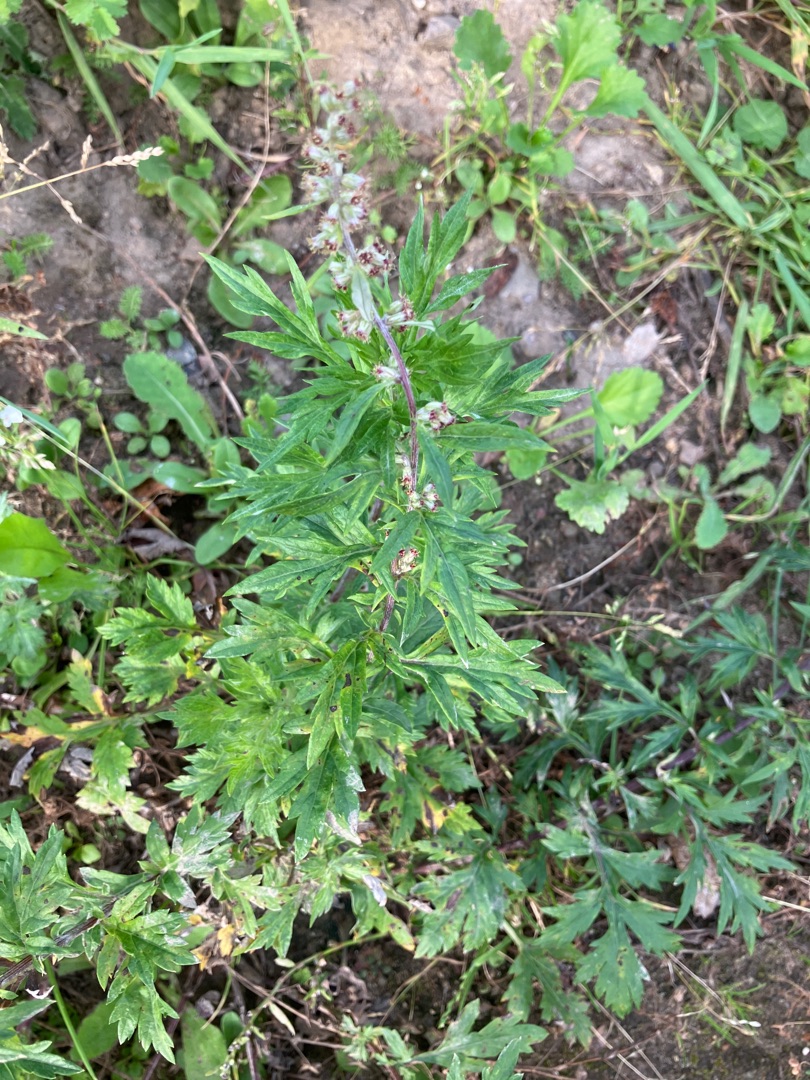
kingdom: Plantae
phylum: Tracheophyta
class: Magnoliopsida
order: Asterales
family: Asteraceae
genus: Artemisia
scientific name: Artemisia vulgaris
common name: Grå-bynke
